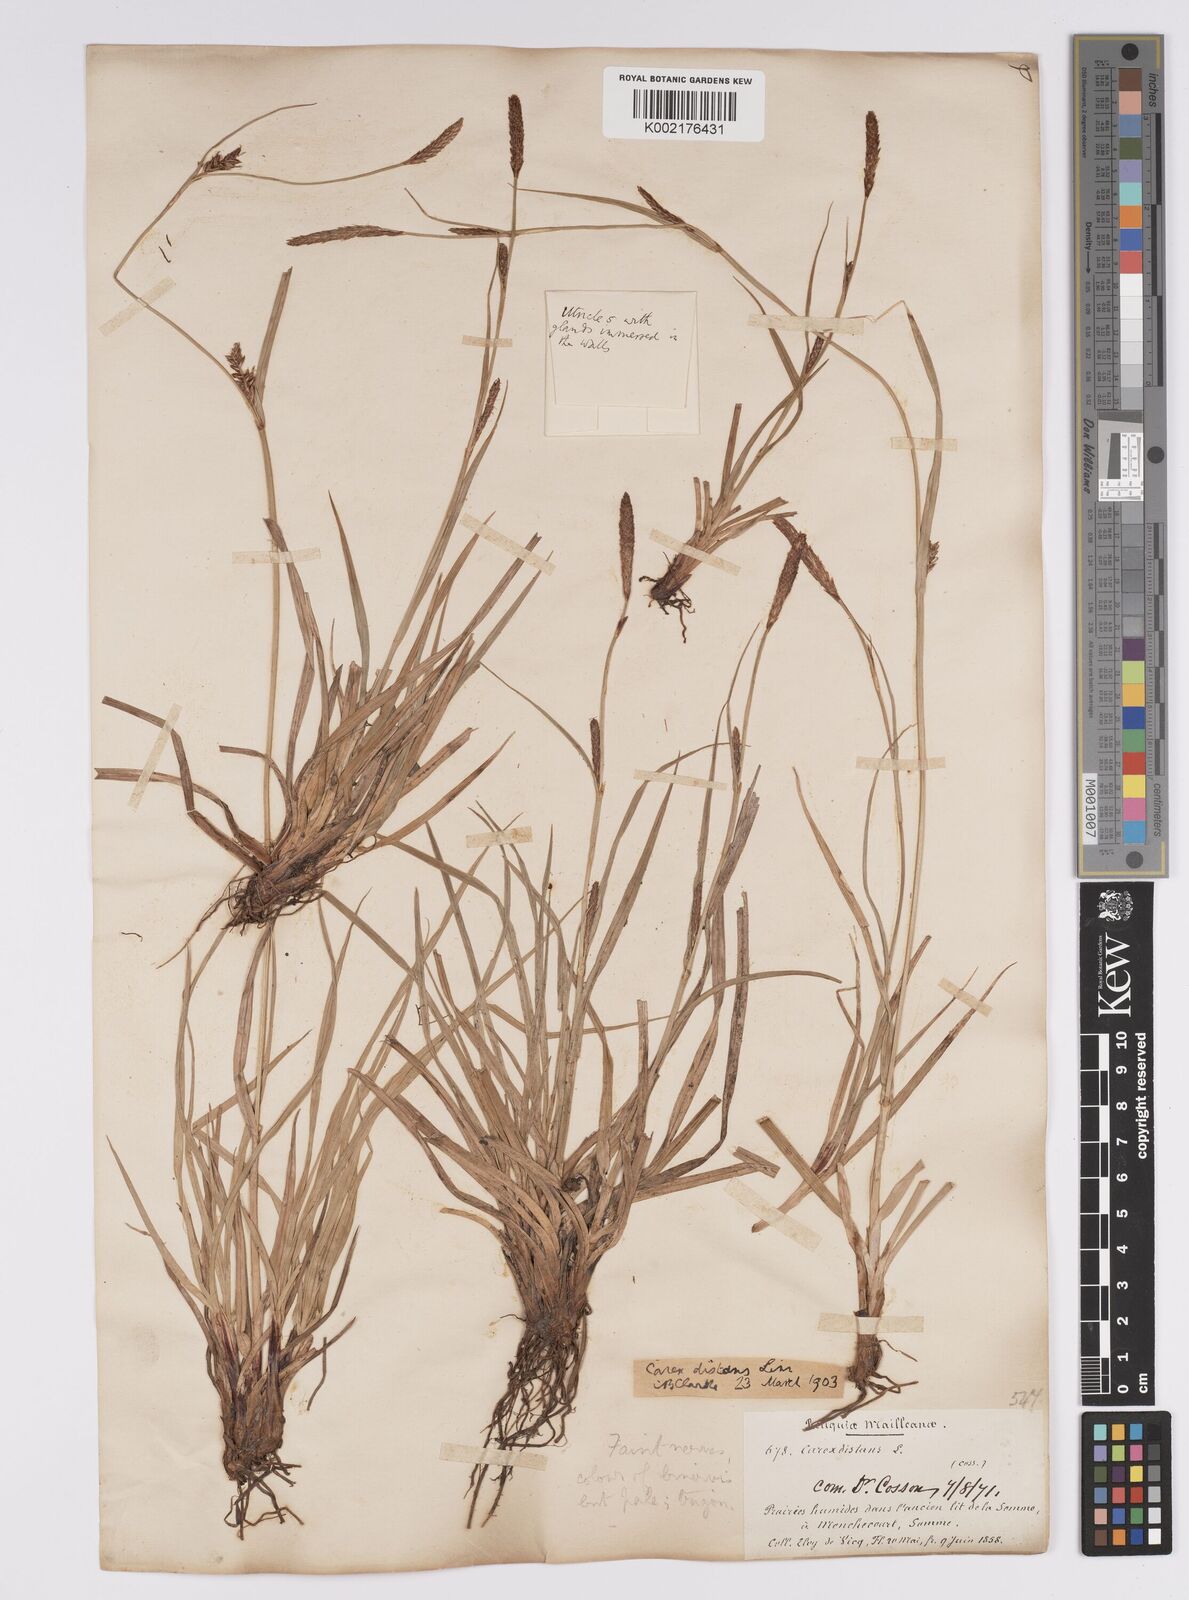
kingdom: Plantae
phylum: Tracheophyta
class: Liliopsida
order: Poales
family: Cyperaceae
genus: Carex
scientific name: Carex distans
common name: Distant sedge
